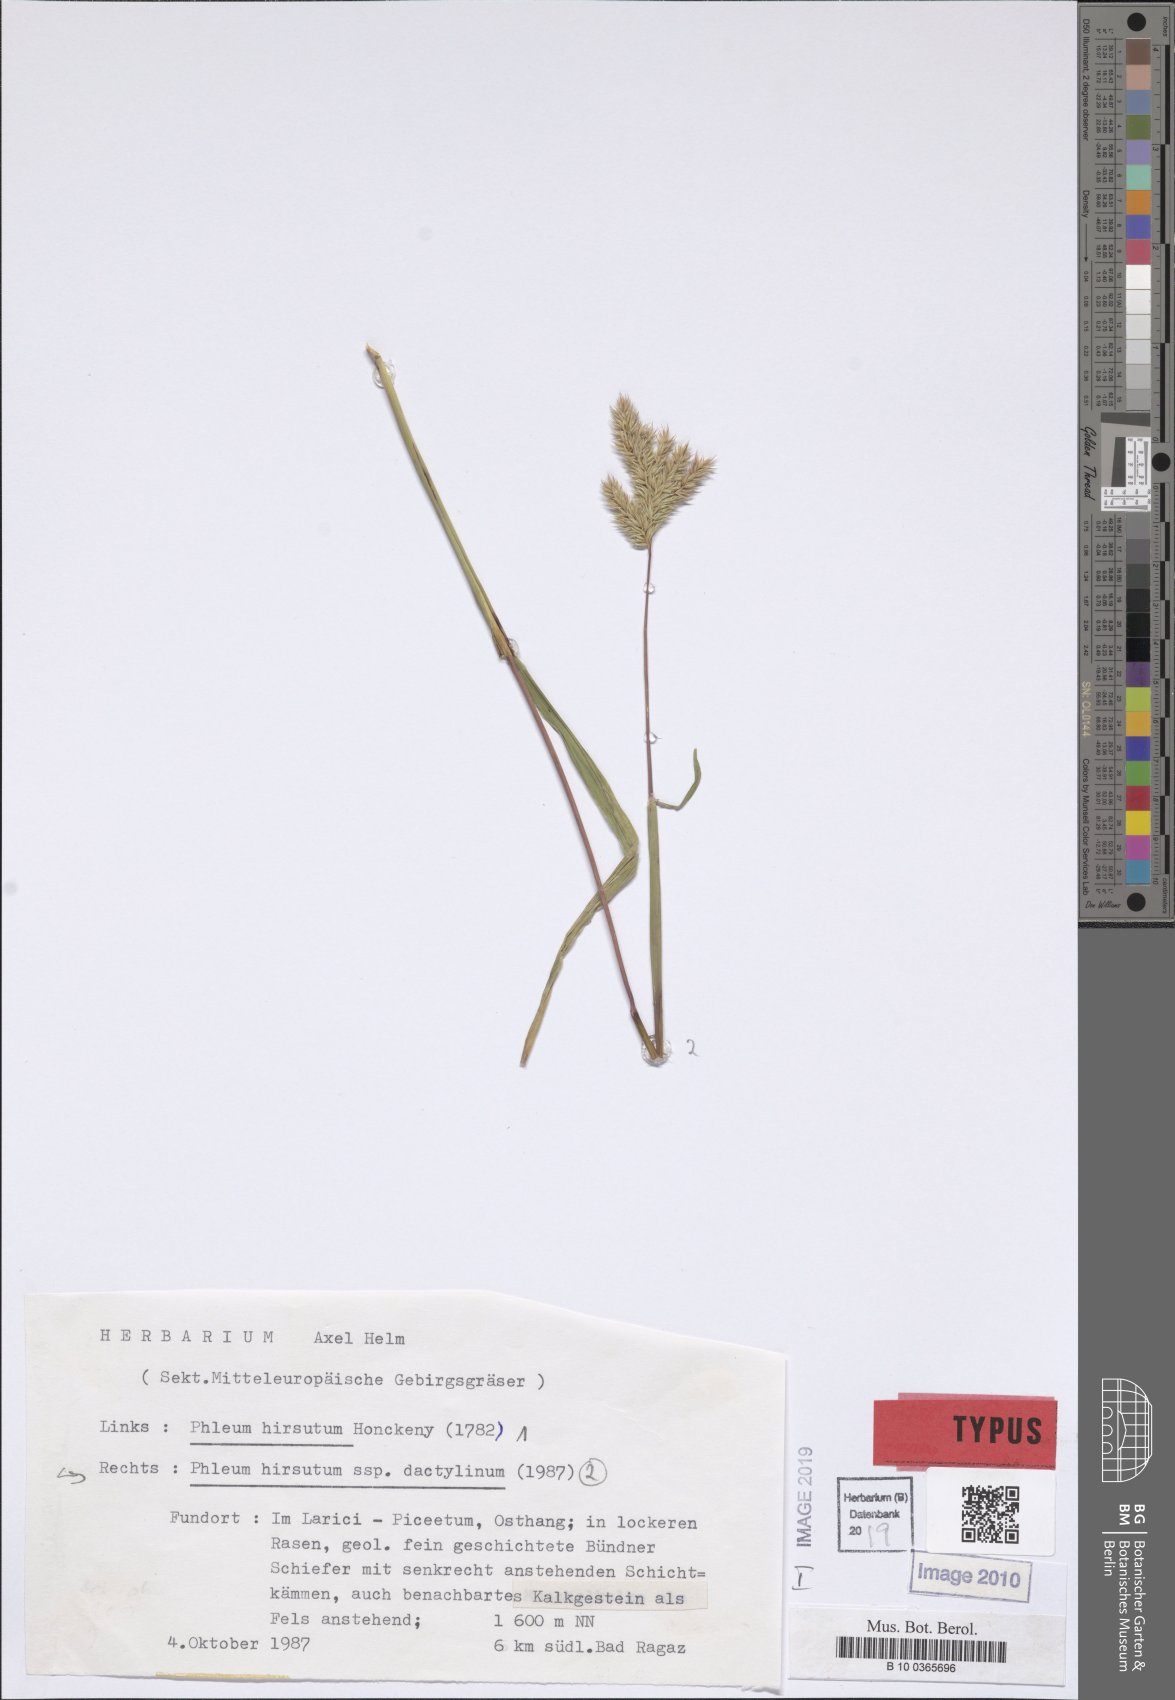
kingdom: Plantae
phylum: Tracheophyta
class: Liliopsida
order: Poales
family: Poaceae
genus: Phleum
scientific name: Phleum hirsutum
